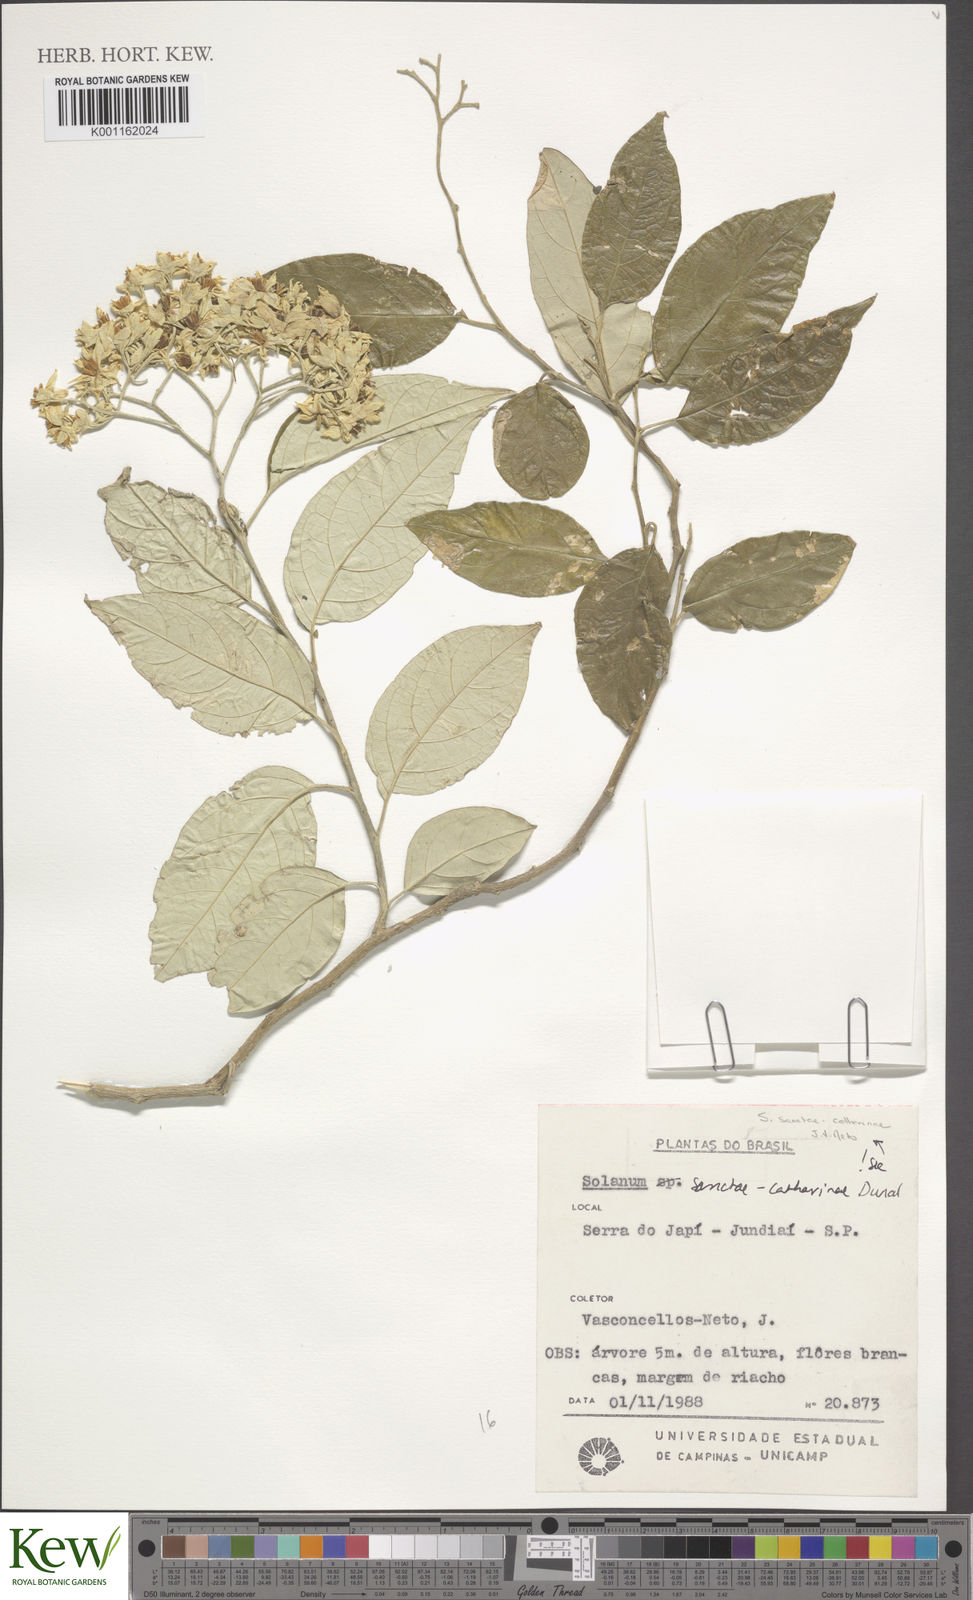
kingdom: Plantae
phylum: Tracheophyta
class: Magnoliopsida
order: Solanales
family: Solanaceae
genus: Solanum
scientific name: Solanum sanctae-catharinae
